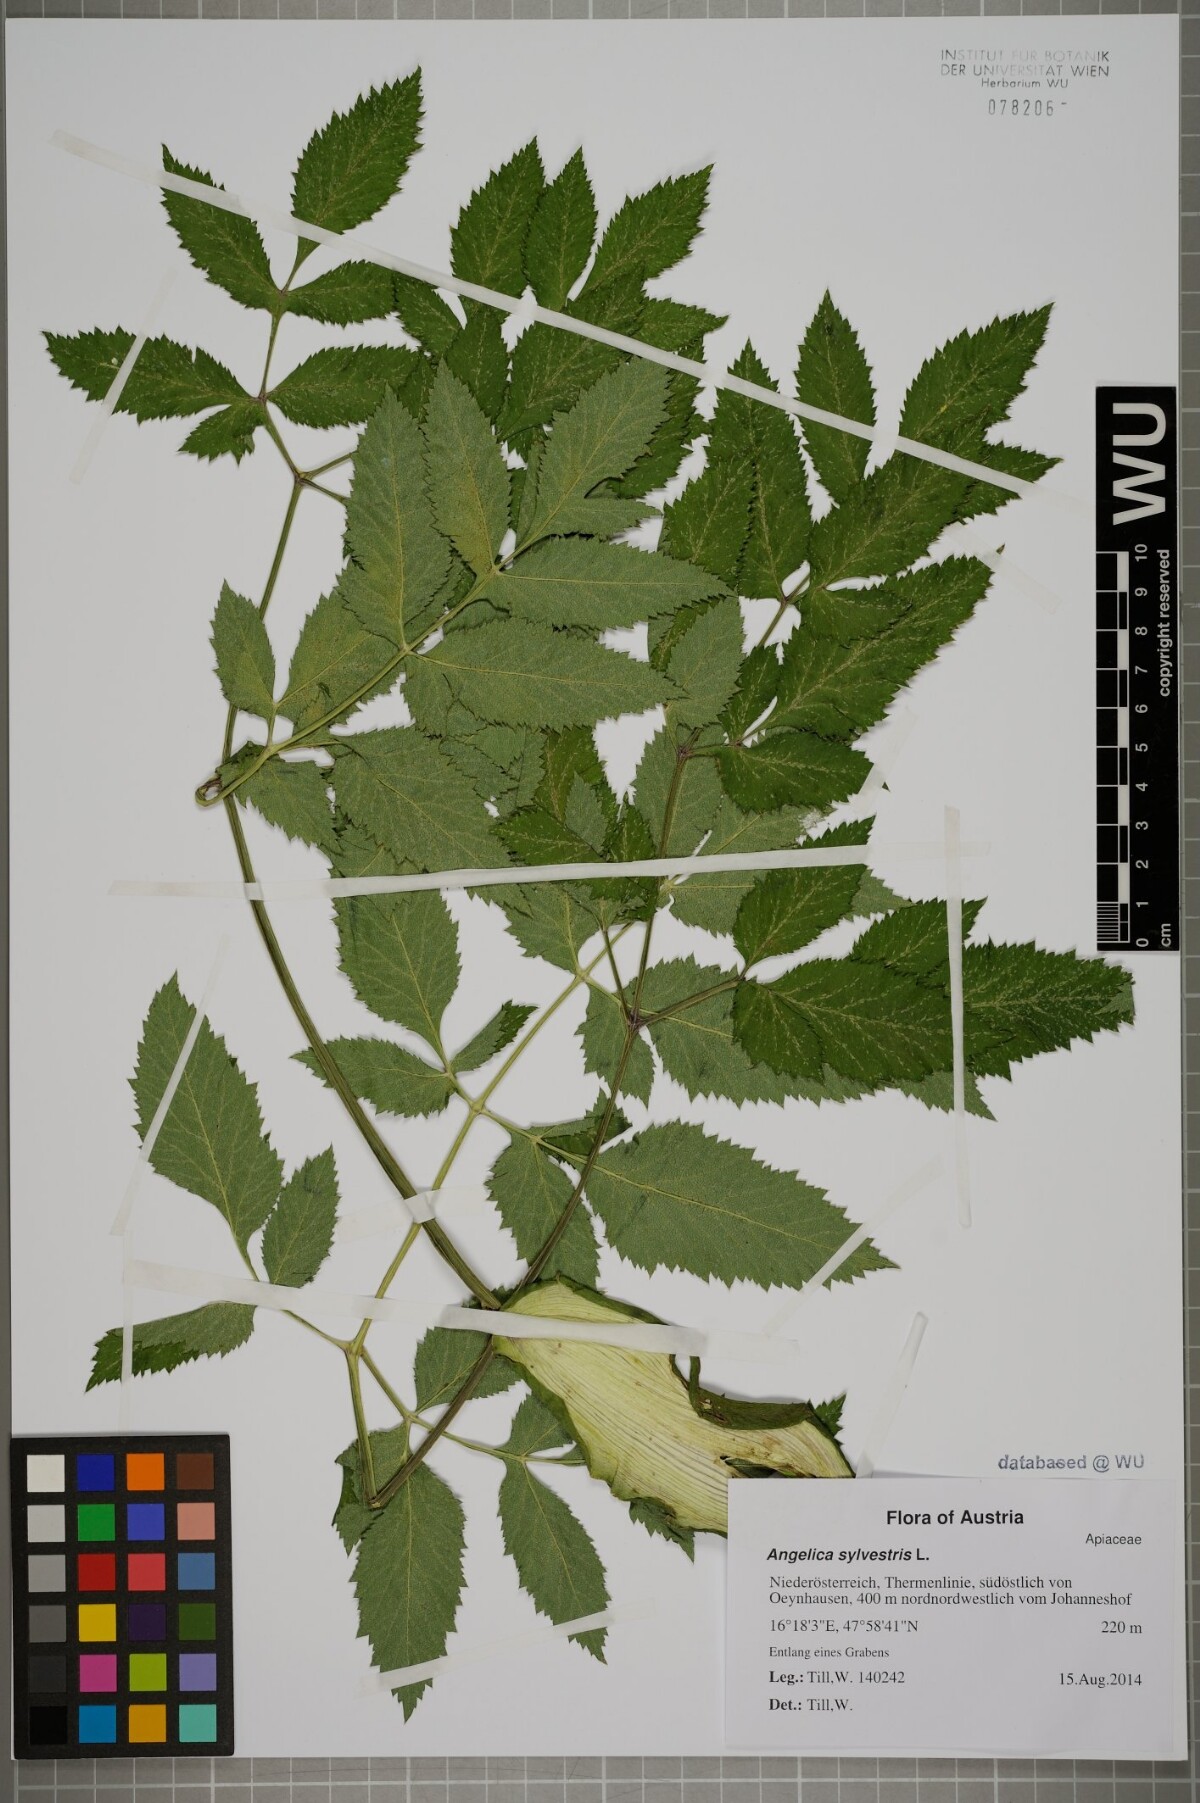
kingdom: Plantae
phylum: Tracheophyta
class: Magnoliopsida
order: Apiales
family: Apiaceae
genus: Angelica
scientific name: Angelica sylvestris
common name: Wild angelica
